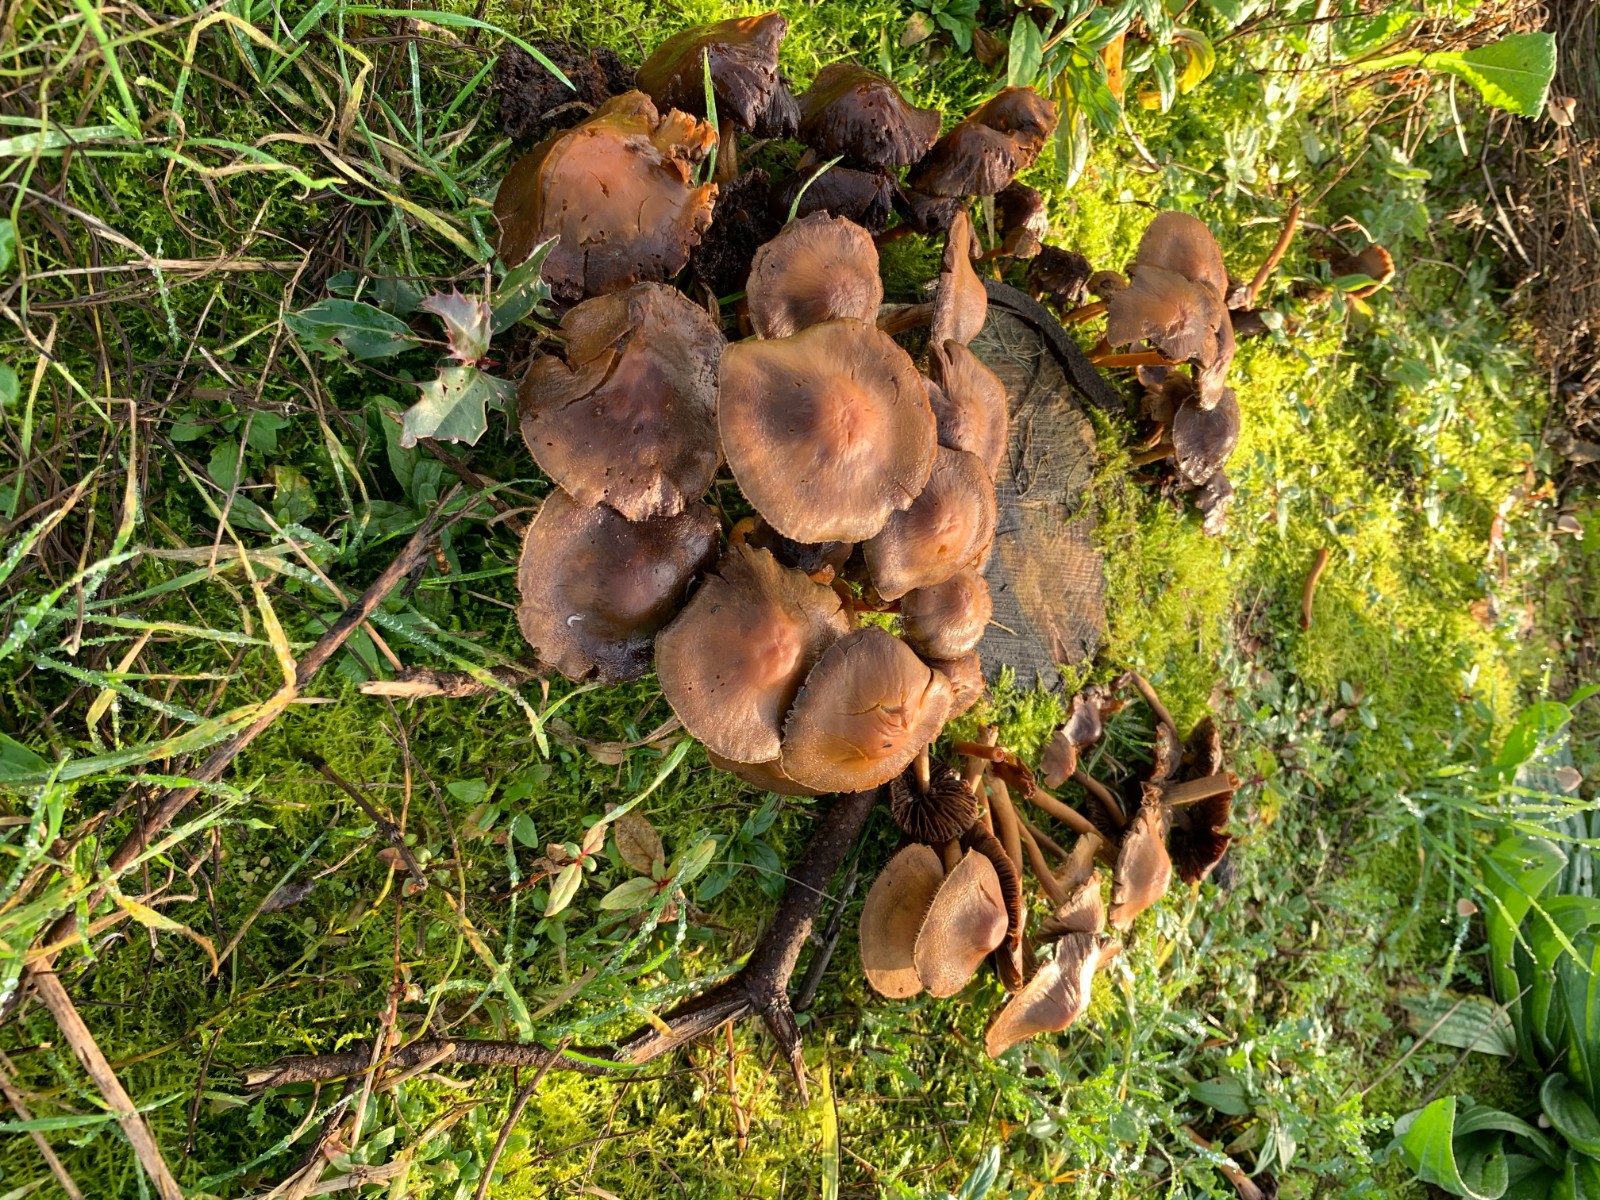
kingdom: Fungi
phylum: Basidiomycota
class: Agaricomycetes
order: Agaricales
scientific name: Agaricales
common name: champignonordenen
